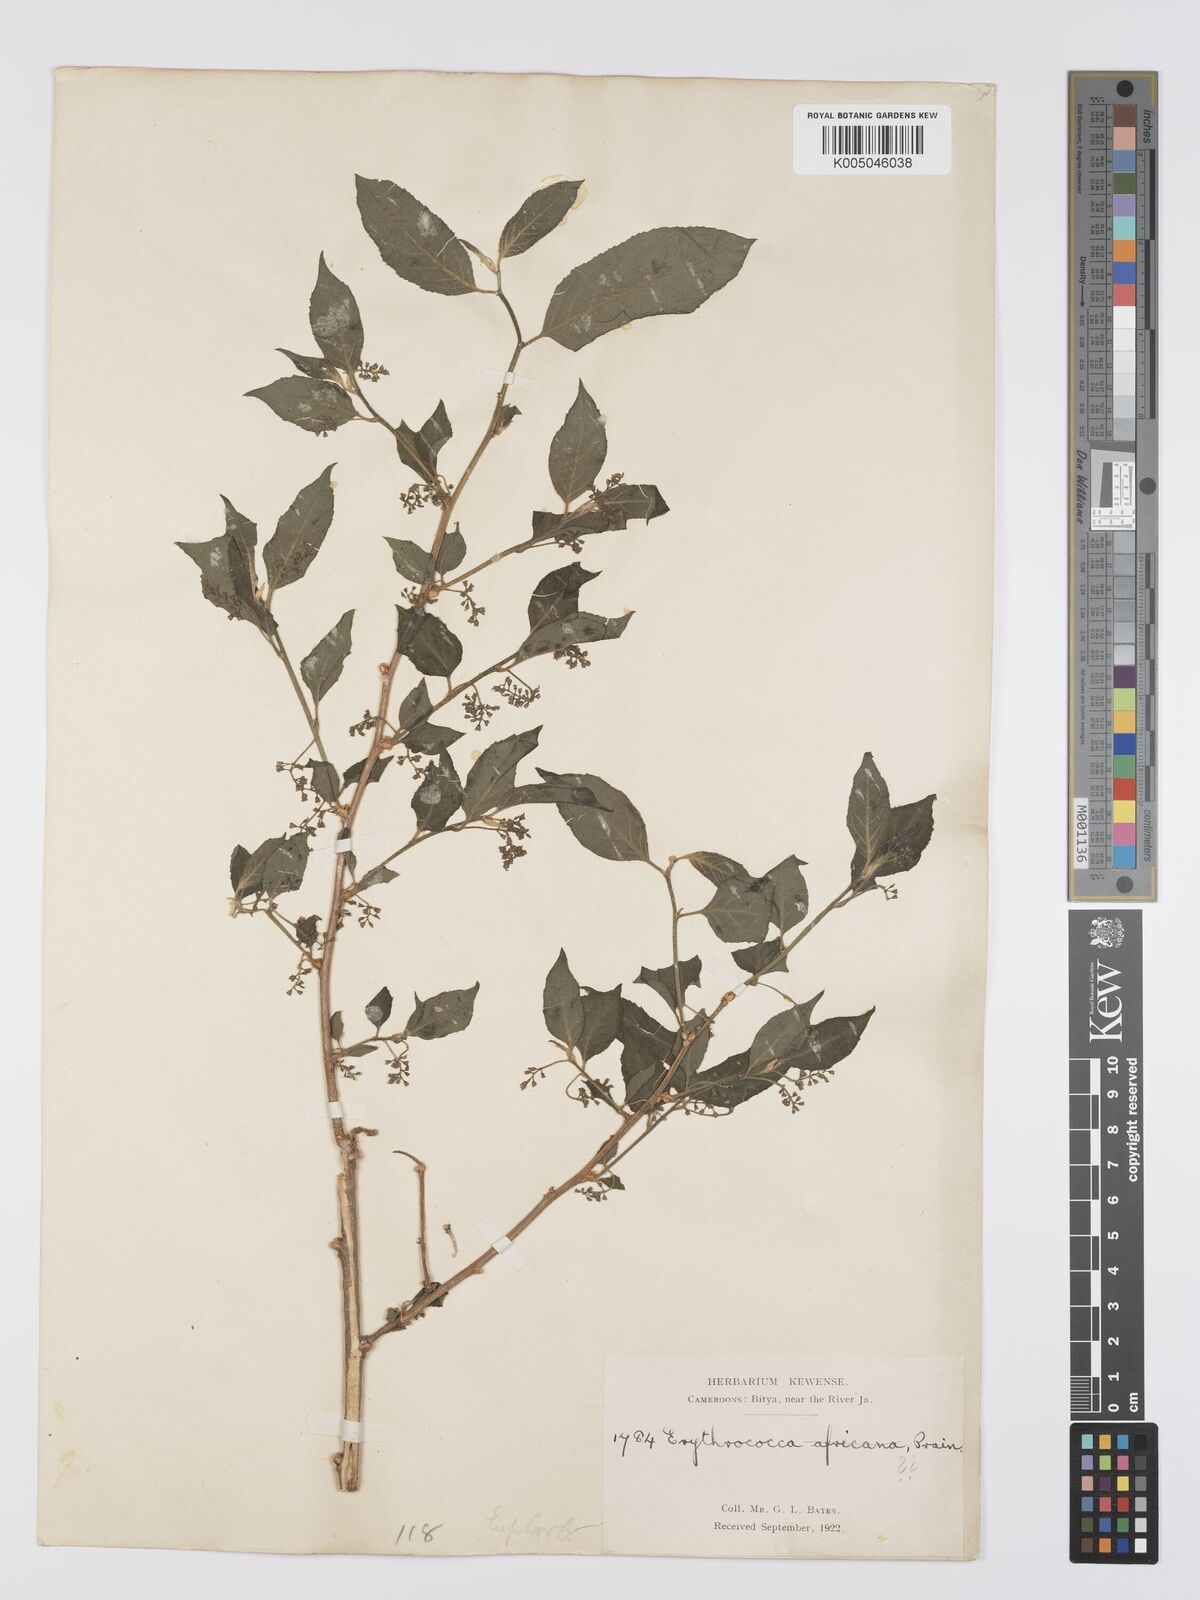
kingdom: Plantae
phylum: Tracheophyta
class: Magnoliopsida
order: Malpighiales
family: Euphorbiaceae
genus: Erythrococca
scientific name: Erythrococca
